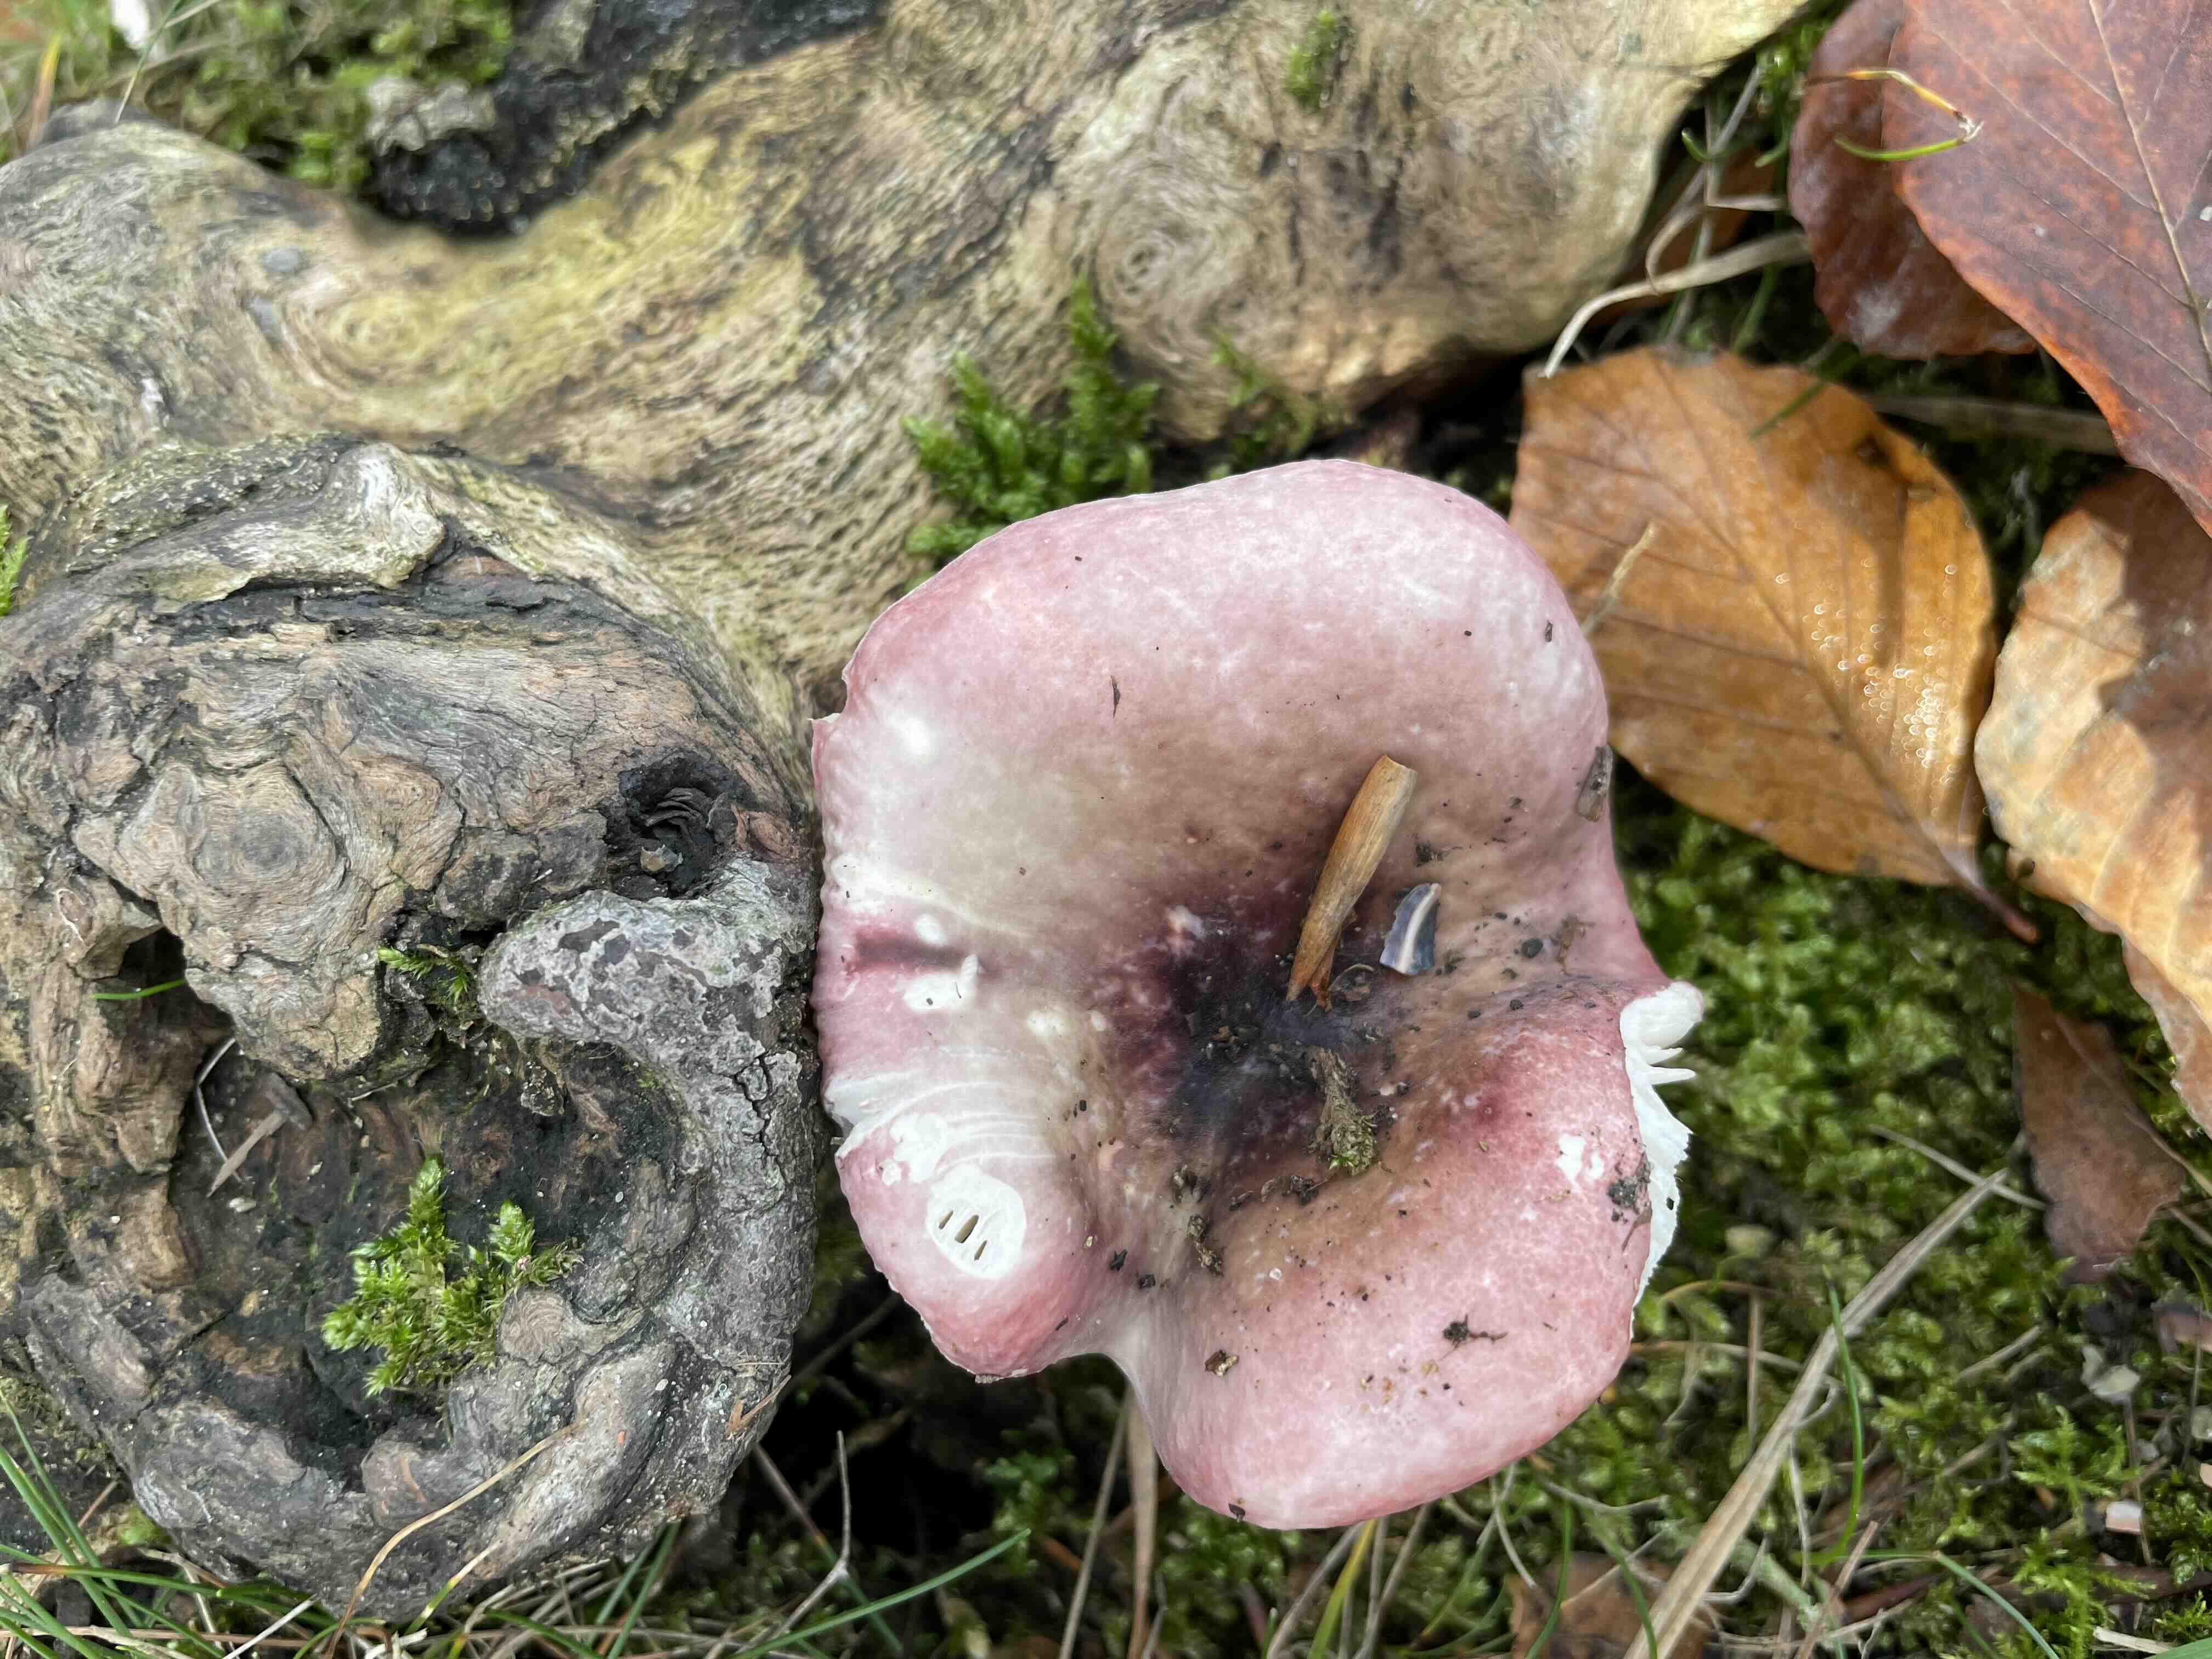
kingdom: Fungi
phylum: Basidiomycota
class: Agaricomycetes
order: Russulales
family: Russulaceae
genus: Russula
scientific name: Russula
